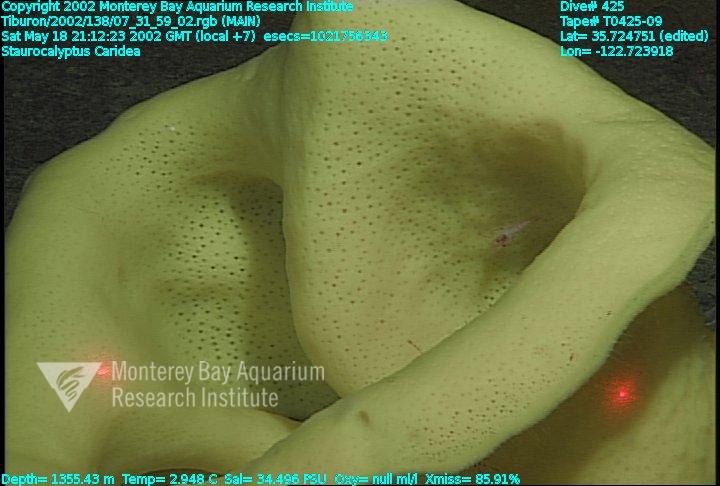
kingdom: Animalia
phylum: Porifera
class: Hexactinellida
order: Lyssacinosida
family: Rossellidae
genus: Staurocalyptus
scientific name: Staurocalyptus
